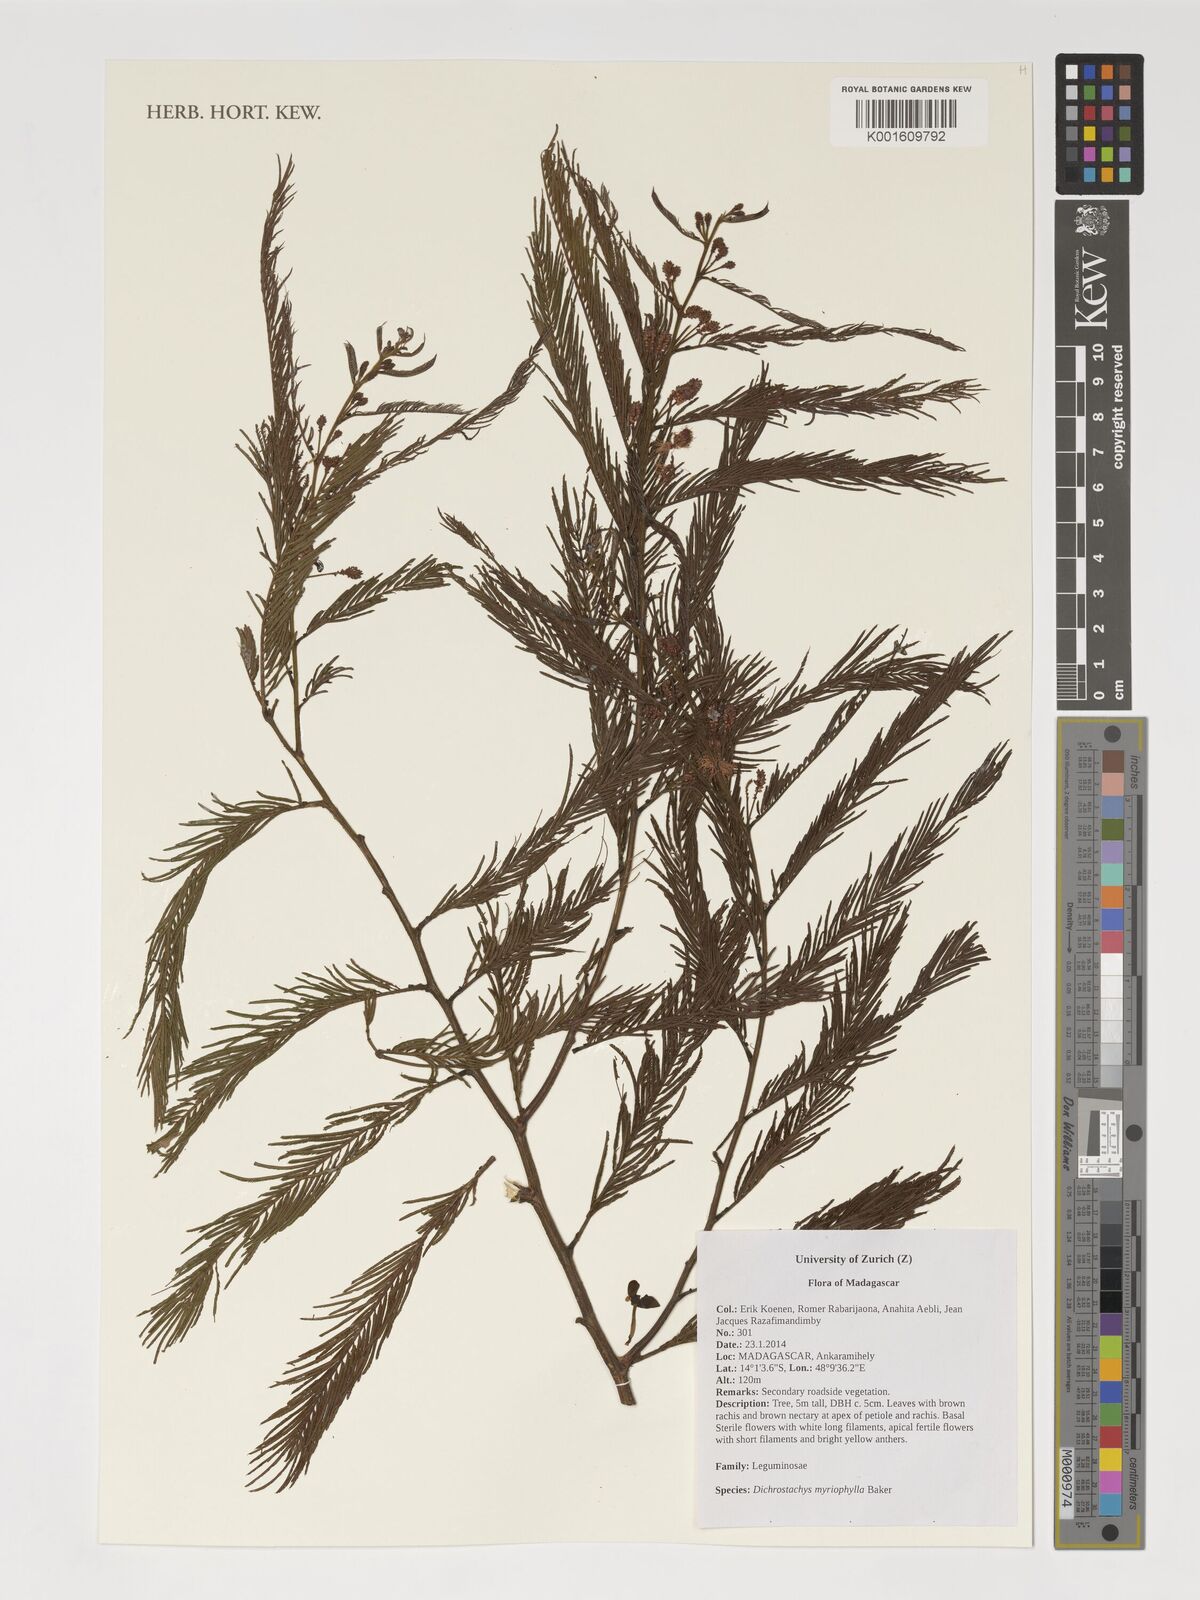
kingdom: Plantae
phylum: Tracheophyta
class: Magnoliopsida
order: Fabales
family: Fabaceae
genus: Dichrostachys
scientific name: Dichrostachys myriophylla
